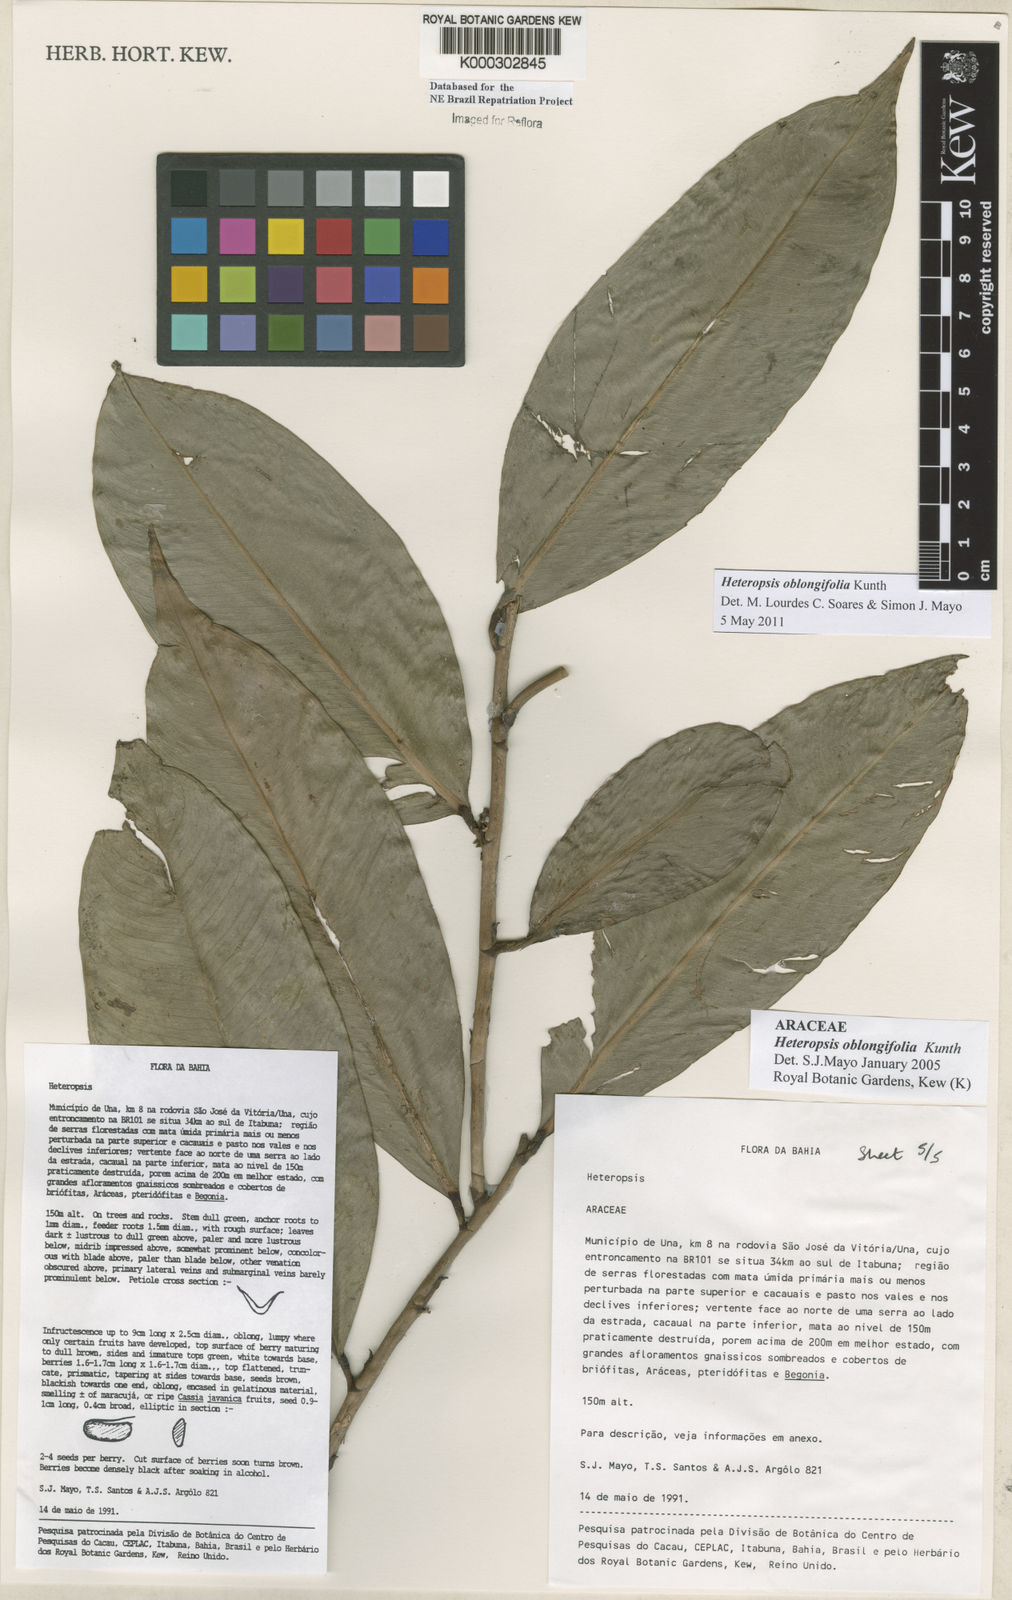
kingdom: Plantae
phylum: Tracheophyta
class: Liliopsida
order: Alismatales
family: Araceae
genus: Heteropsis
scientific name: Heteropsis oblongifolia
